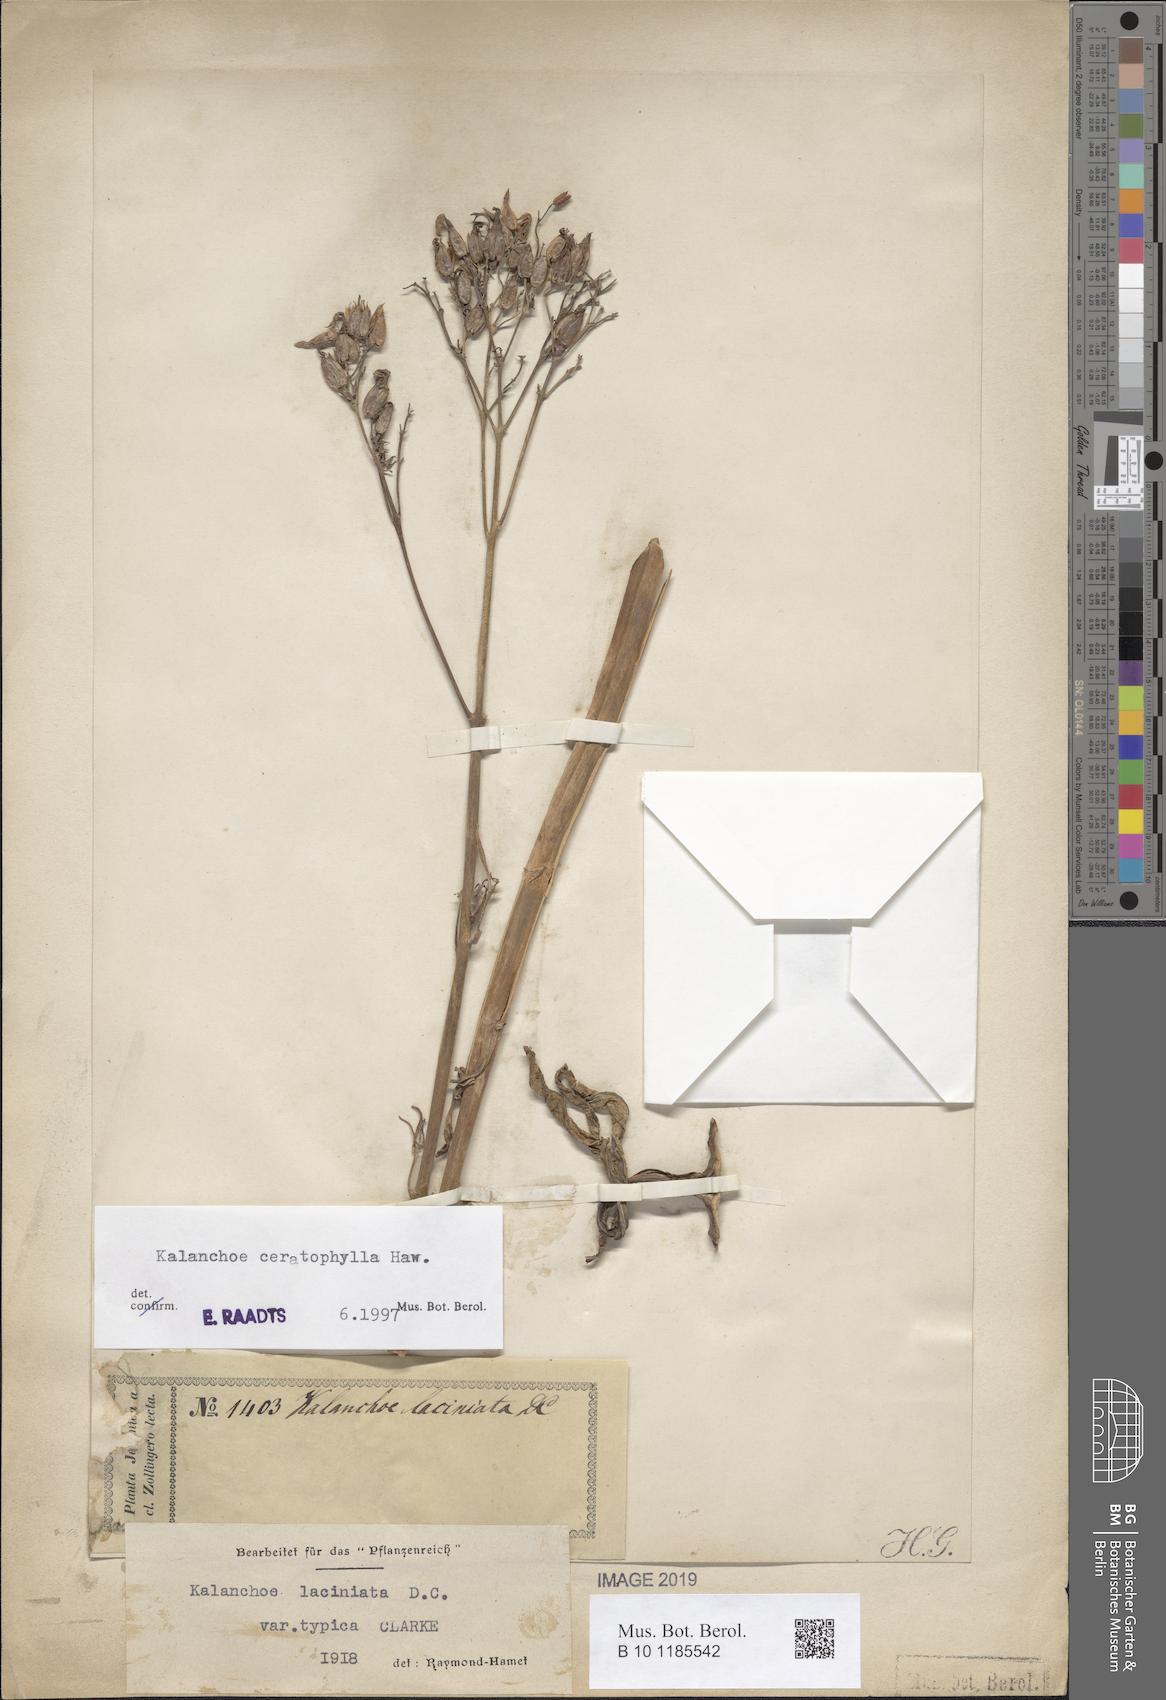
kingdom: Plantae
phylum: Tracheophyta
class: Magnoliopsida
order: Saxifragales
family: Crassulaceae
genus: Kalanchoe
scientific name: Kalanchoe ceratophylla
